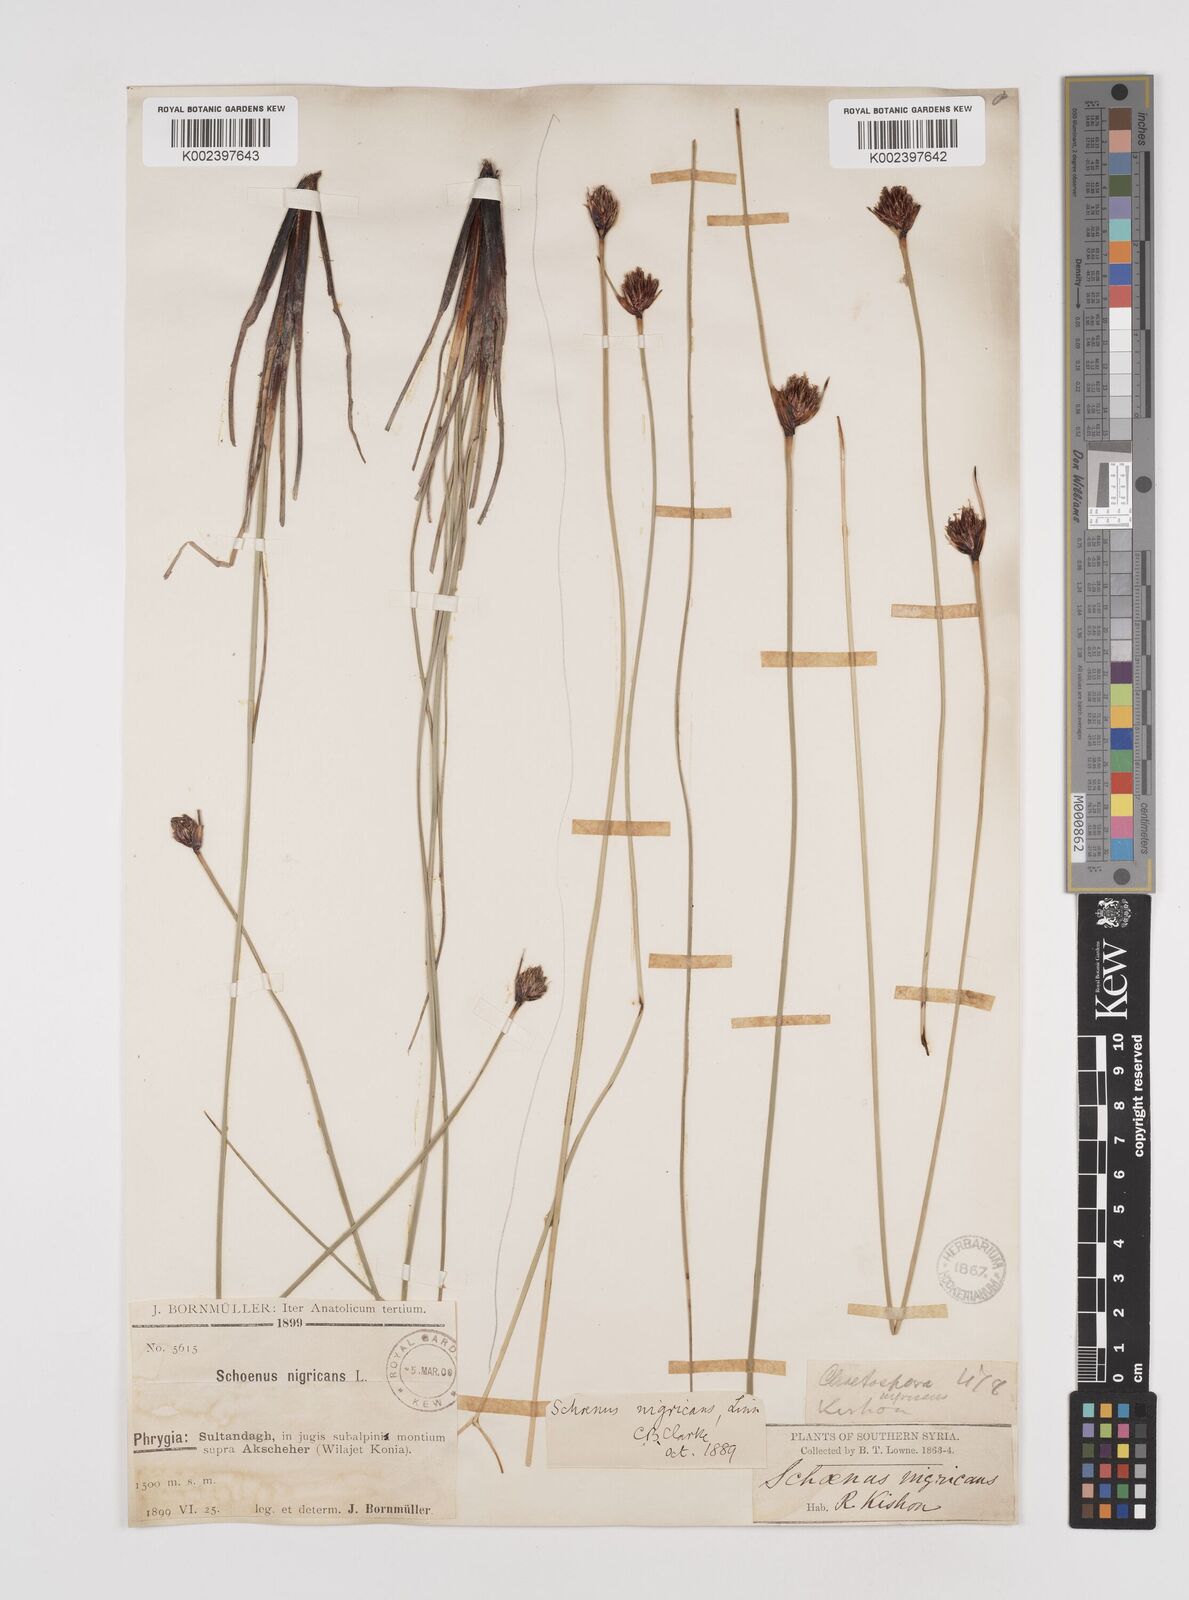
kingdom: Plantae
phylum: Tracheophyta
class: Liliopsida
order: Poales
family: Cyperaceae
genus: Schoenus
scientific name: Schoenus nigricans
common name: Black bog-rush
